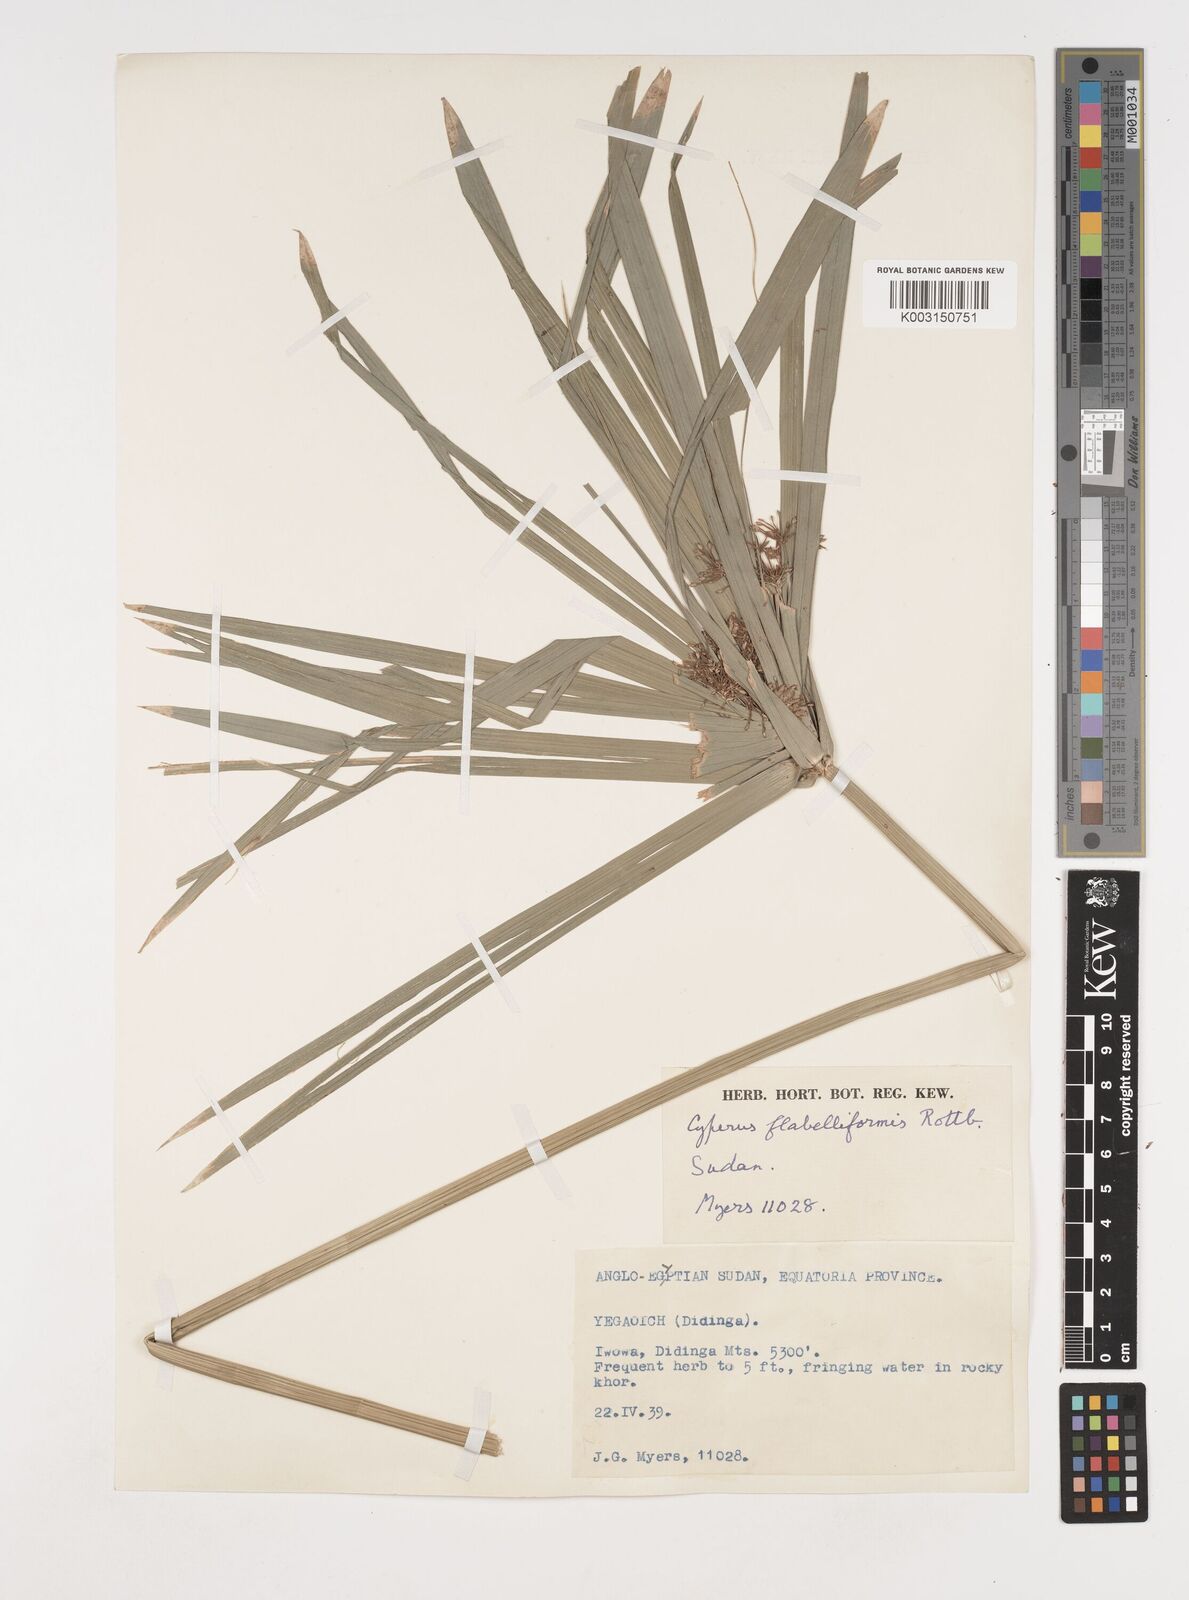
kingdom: Plantae
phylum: Tracheophyta
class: Liliopsida
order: Poales
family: Cyperaceae
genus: Cyperus
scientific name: Cyperus alternifolius
